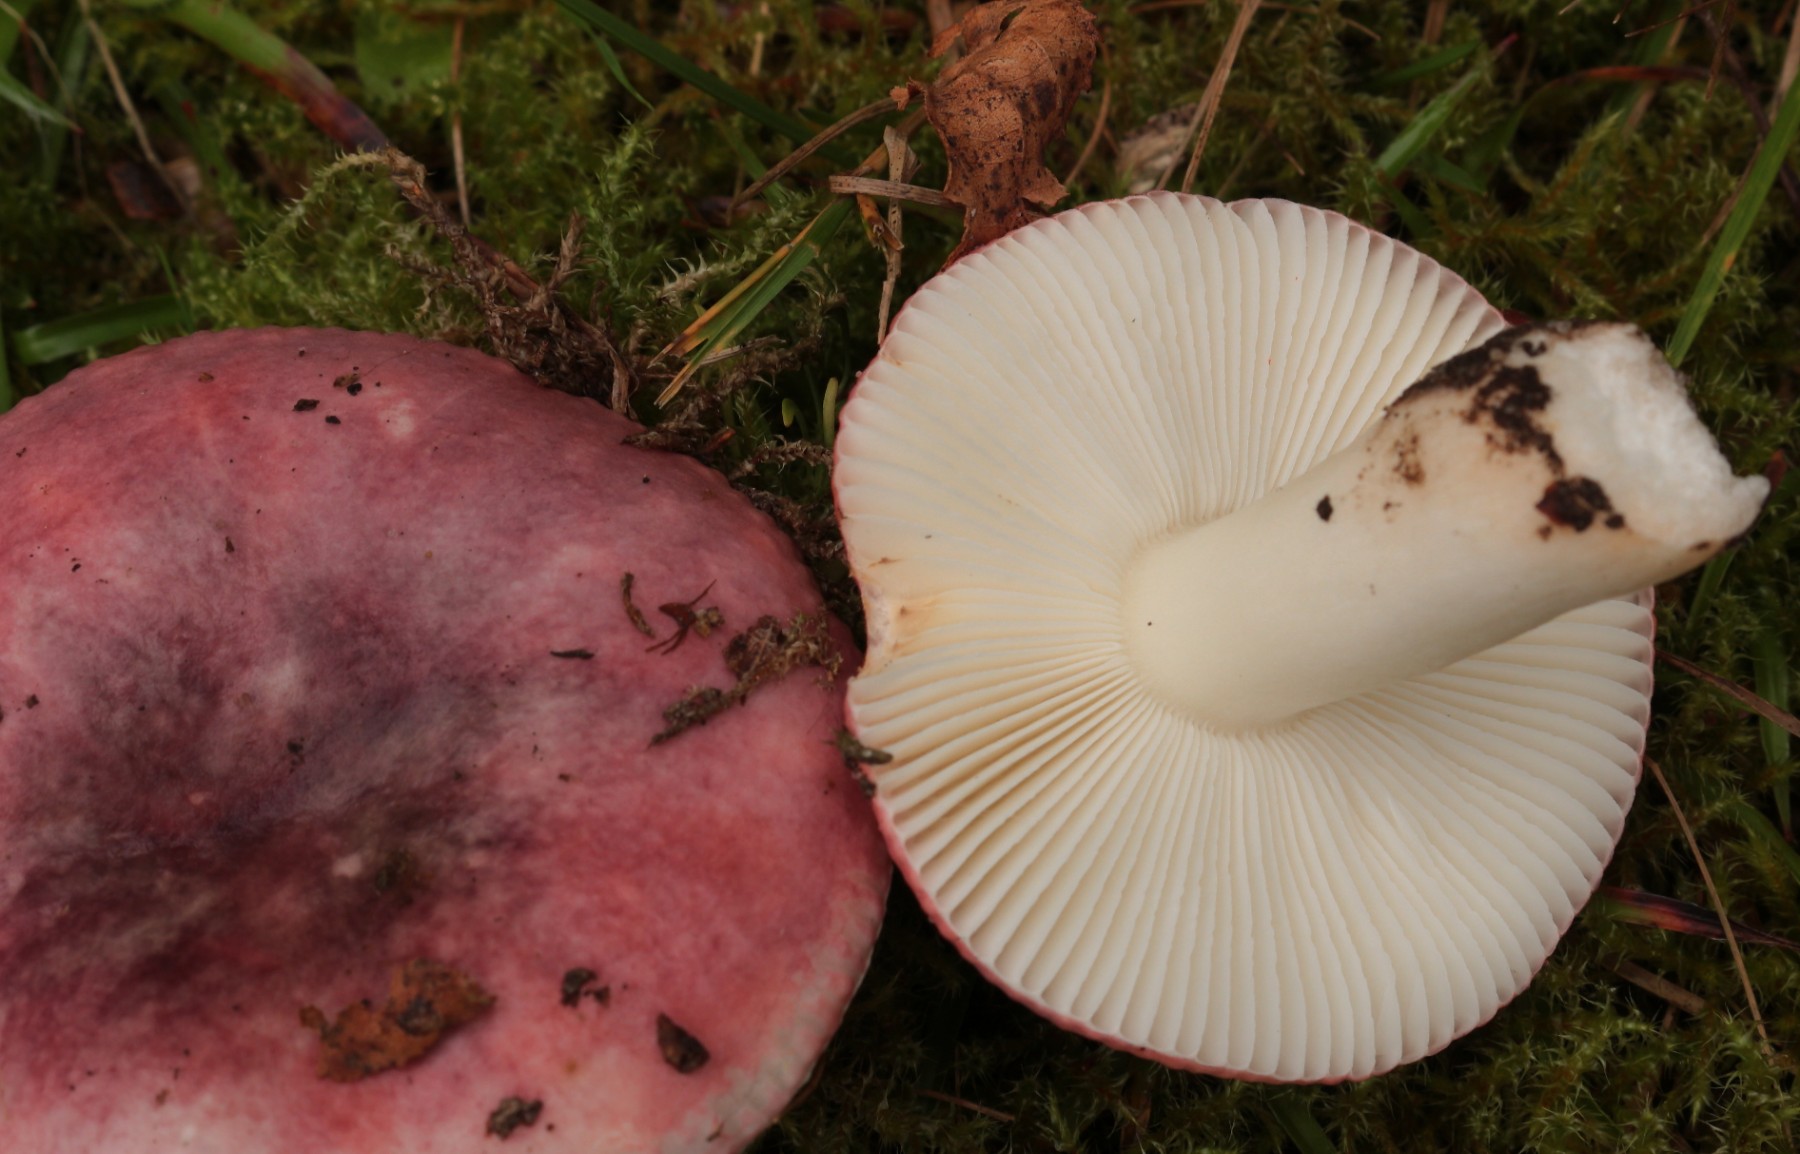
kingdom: Fungi
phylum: Basidiomycota
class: Agaricomycetes
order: Russulales
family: Russulaceae
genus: Russula
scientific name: Russula fragilis
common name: savbladet skørhat
